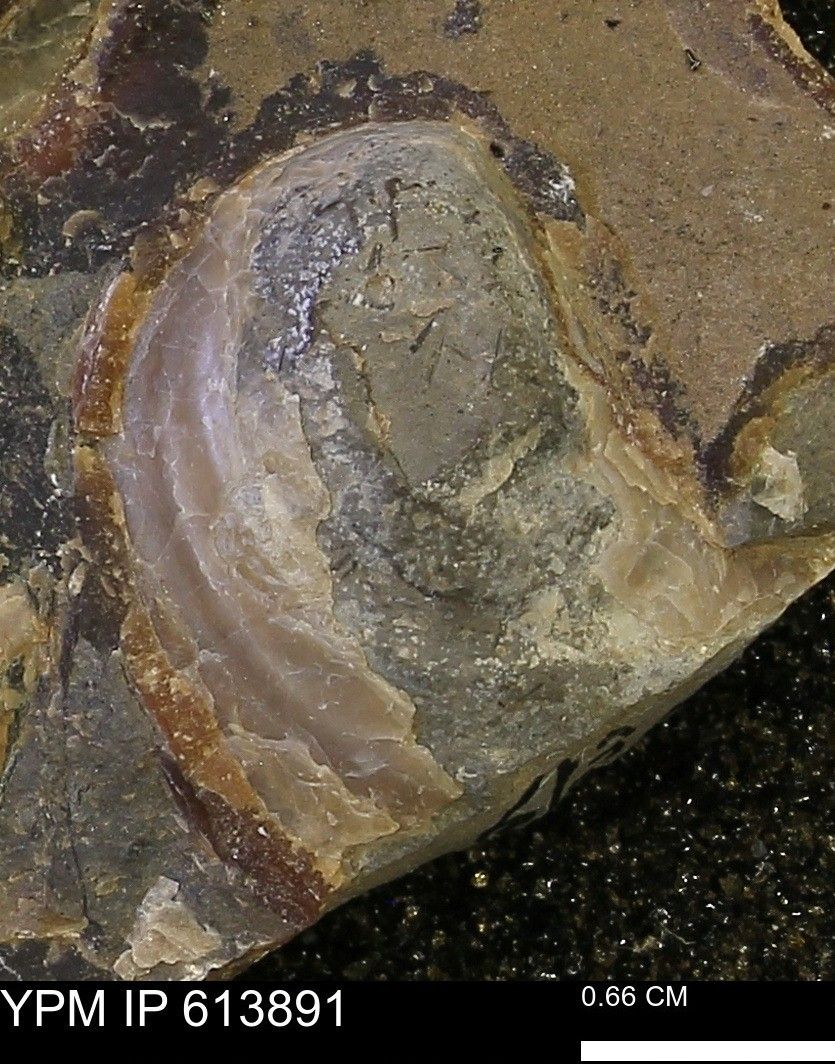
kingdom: Animalia
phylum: Mollusca
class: Bivalvia
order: Myalinida
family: Inoceramidae
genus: Inoceramus
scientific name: Inoceramus
